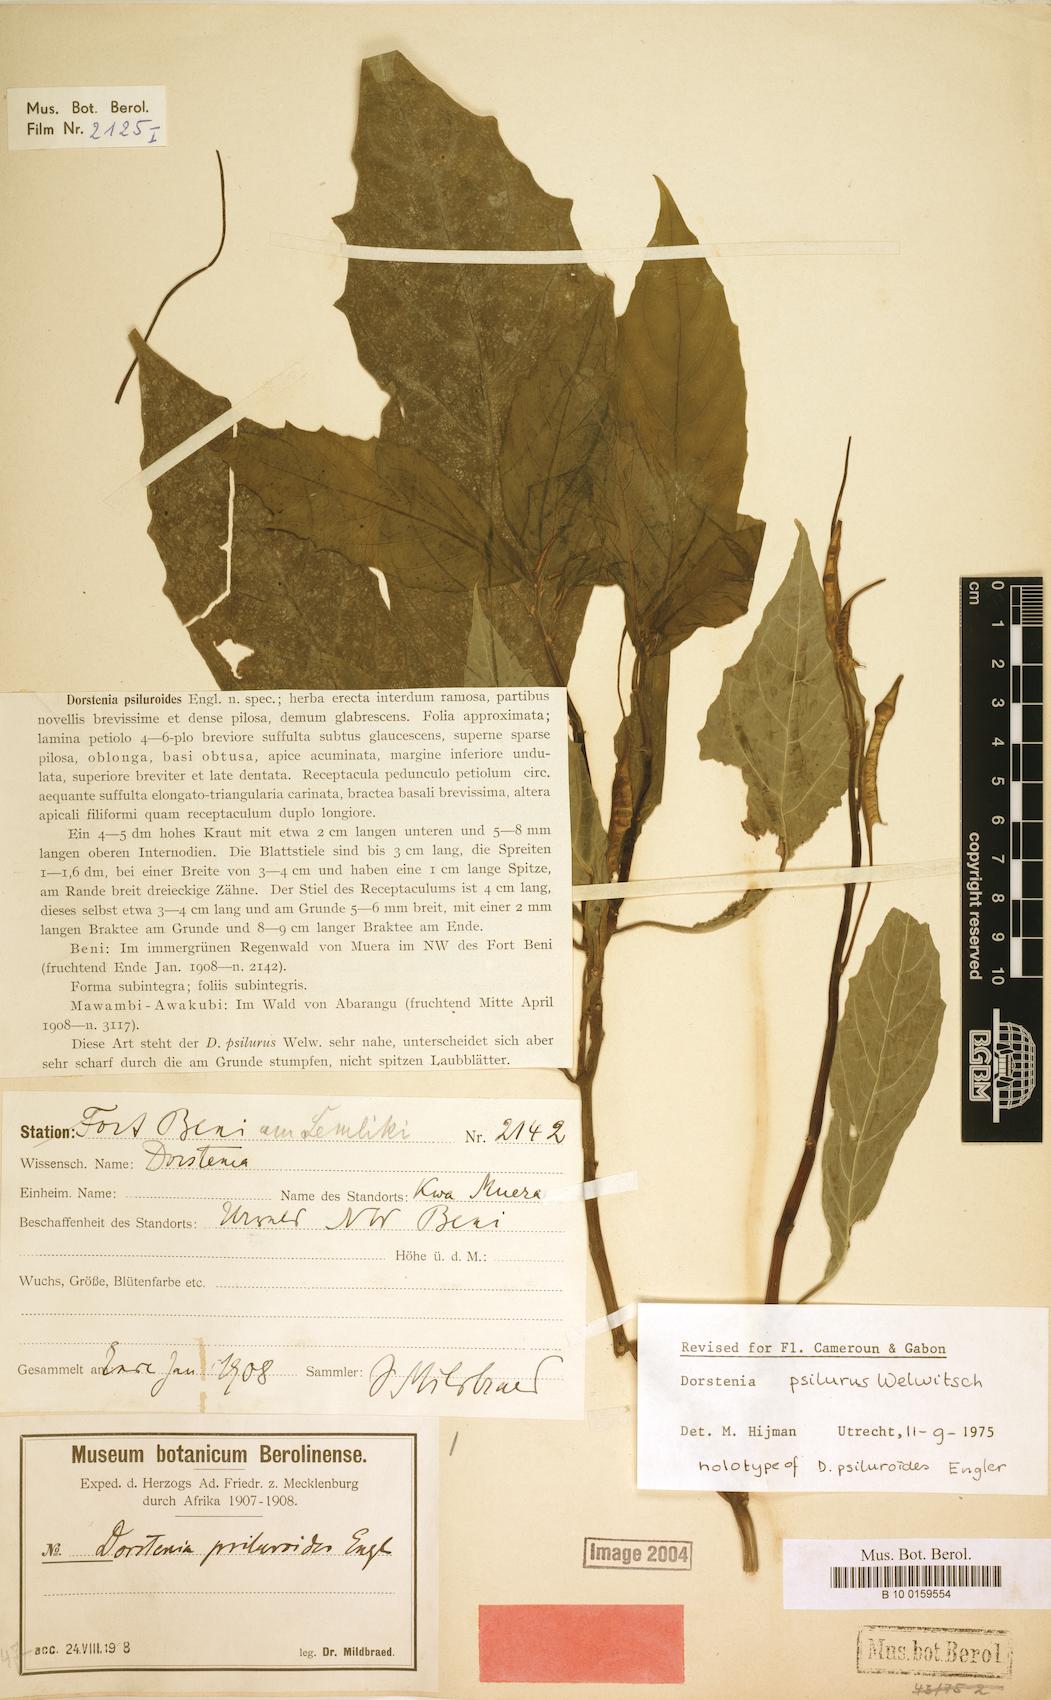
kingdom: Plantae
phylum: Tracheophyta
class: Magnoliopsida
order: Rosales
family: Moraceae
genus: Dorstenia
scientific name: Dorstenia psilurus
